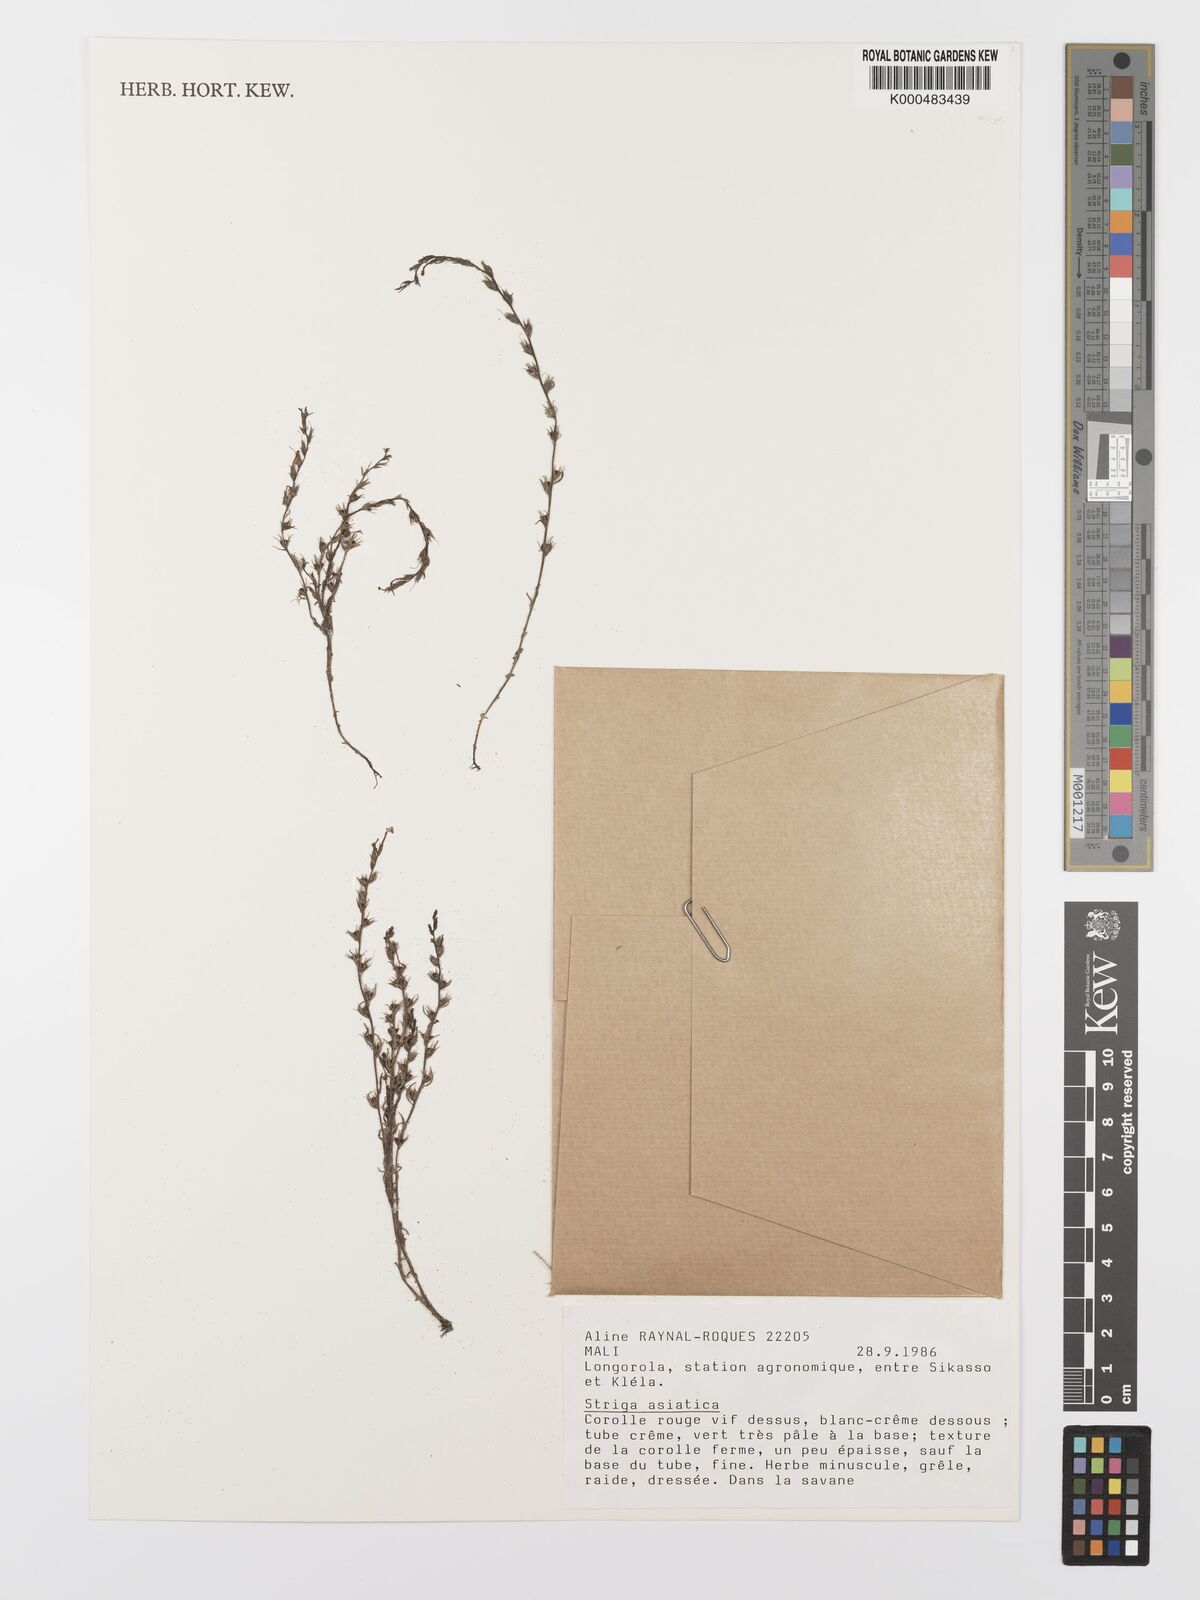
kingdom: Plantae
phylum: Tracheophyta
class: Magnoliopsida
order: Lamiales
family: Orobanchaceae
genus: Striga
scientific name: Striga asiatica
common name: Asiatic witchweed
